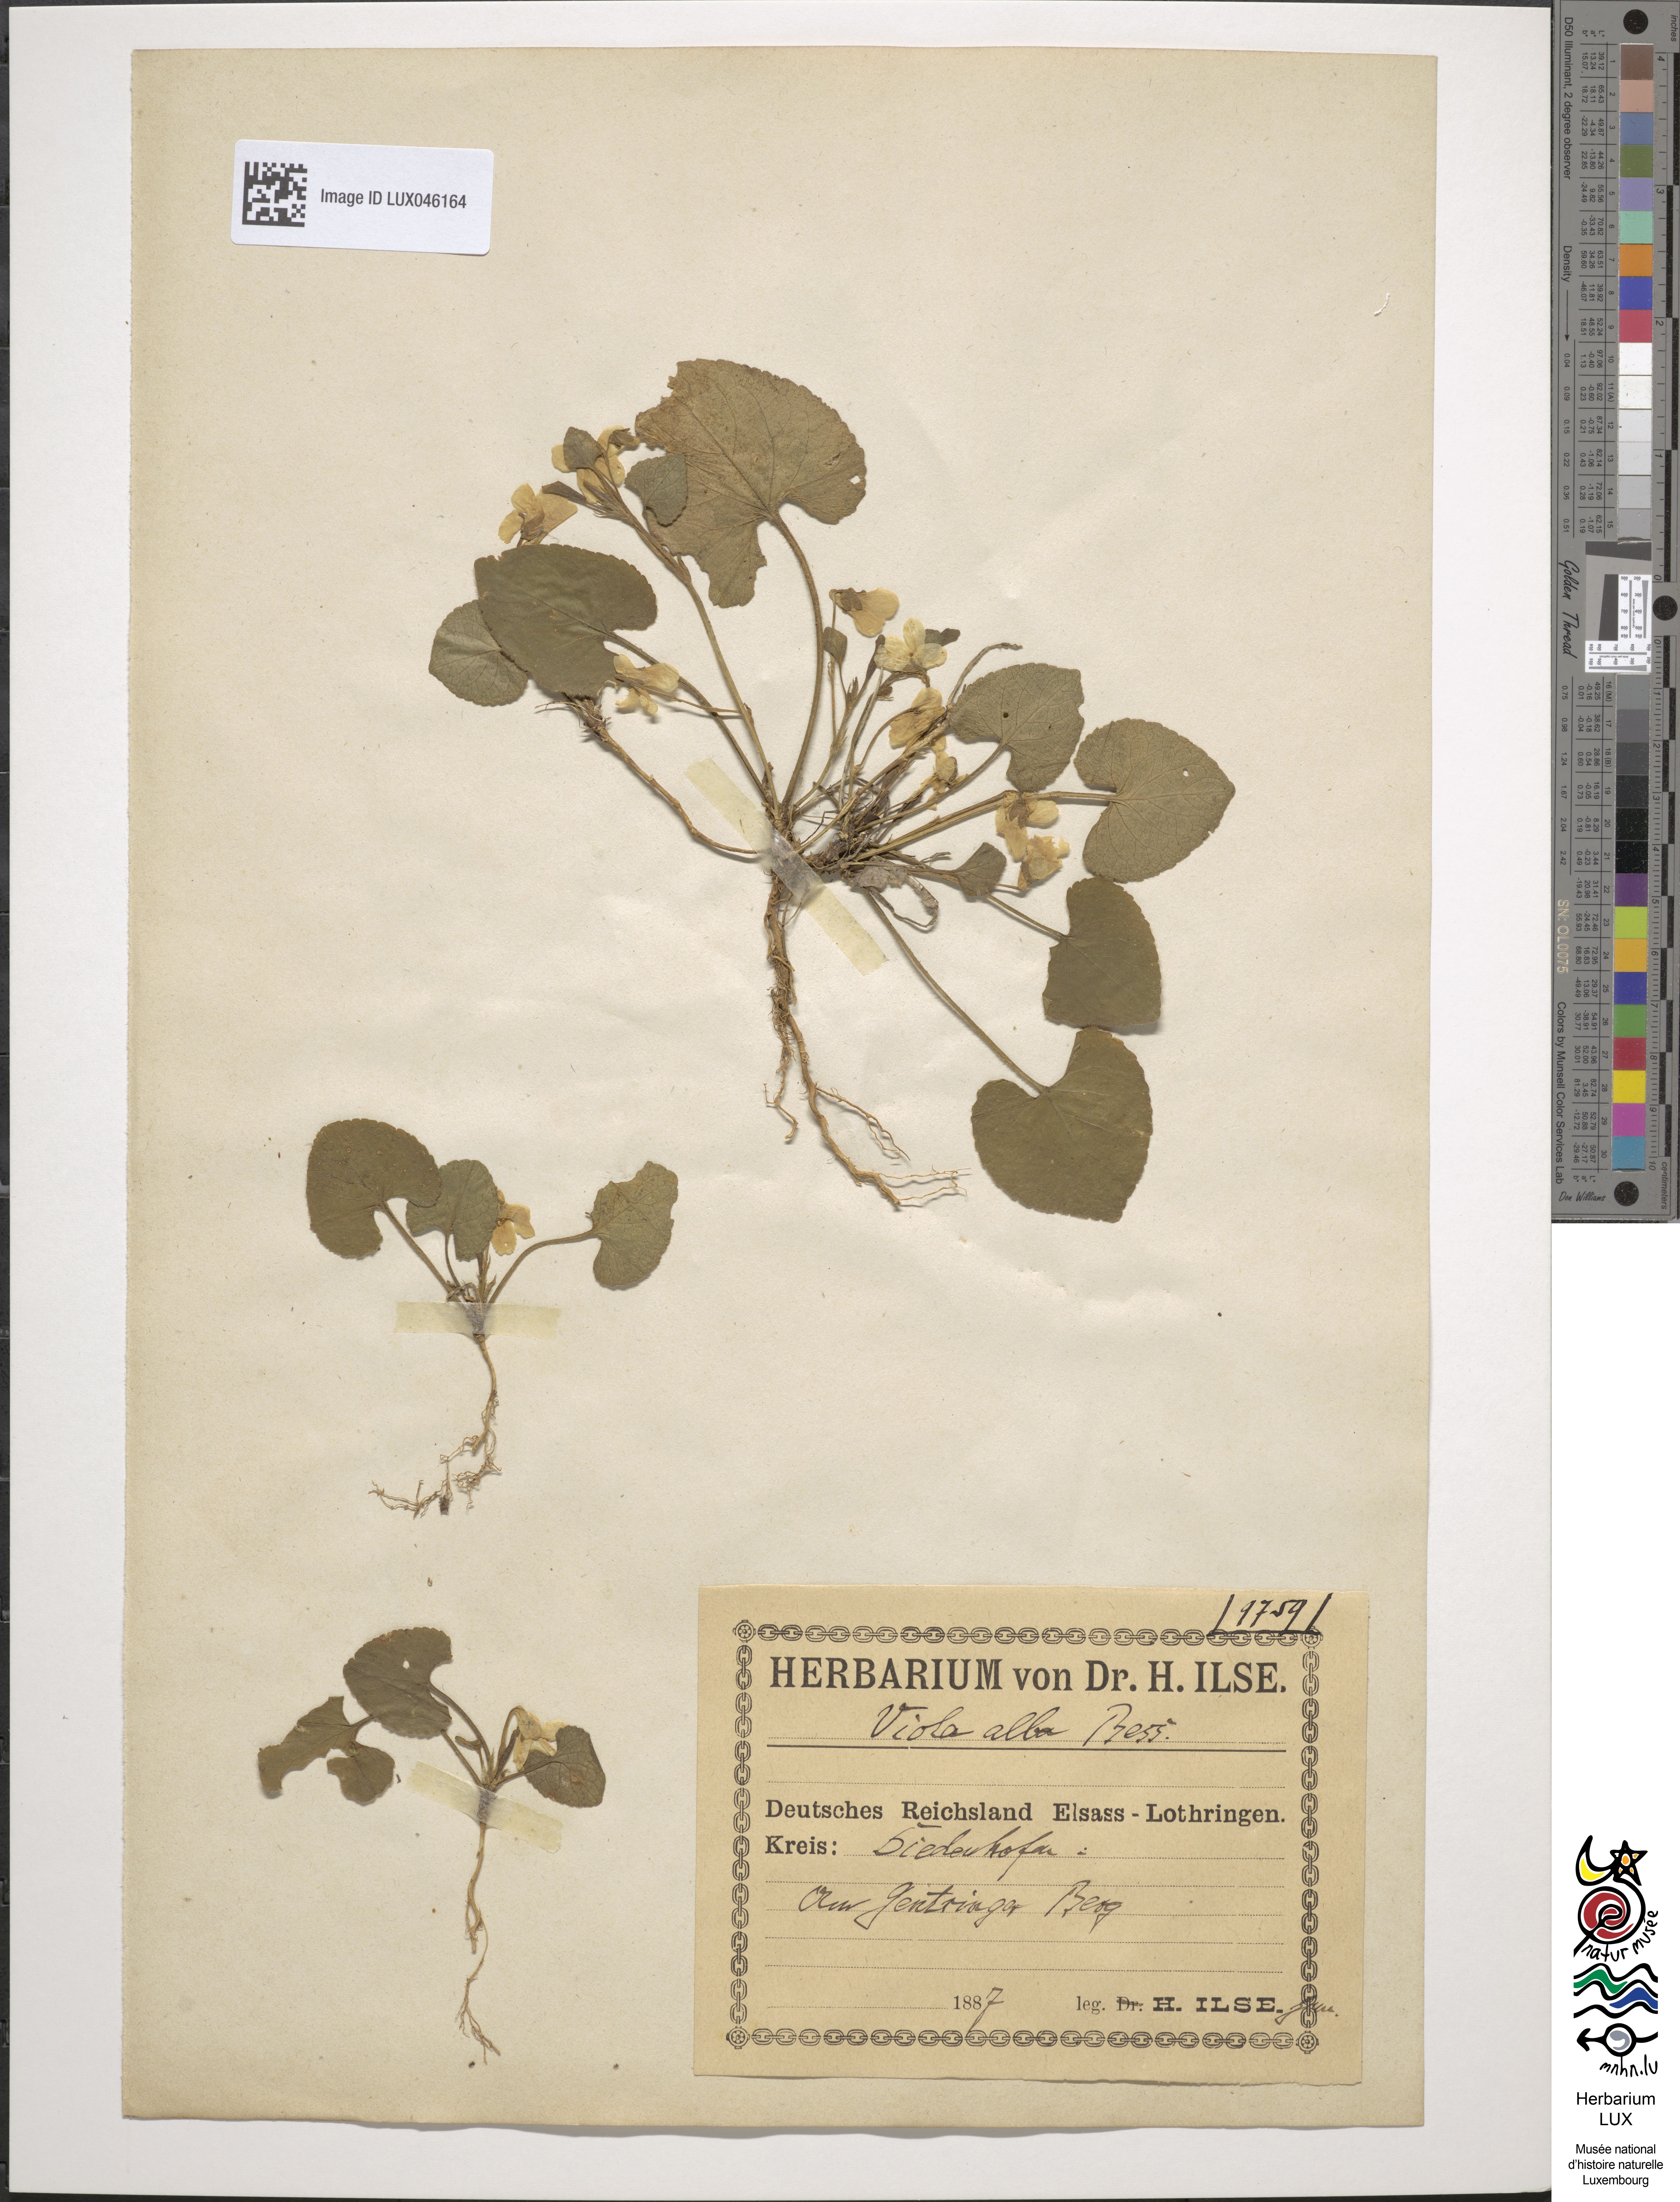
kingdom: Plantae
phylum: Tracheophyta
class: Magnoliopsida
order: Malpighiales
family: Violaceae
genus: Viola
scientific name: Viola alba
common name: White violet
